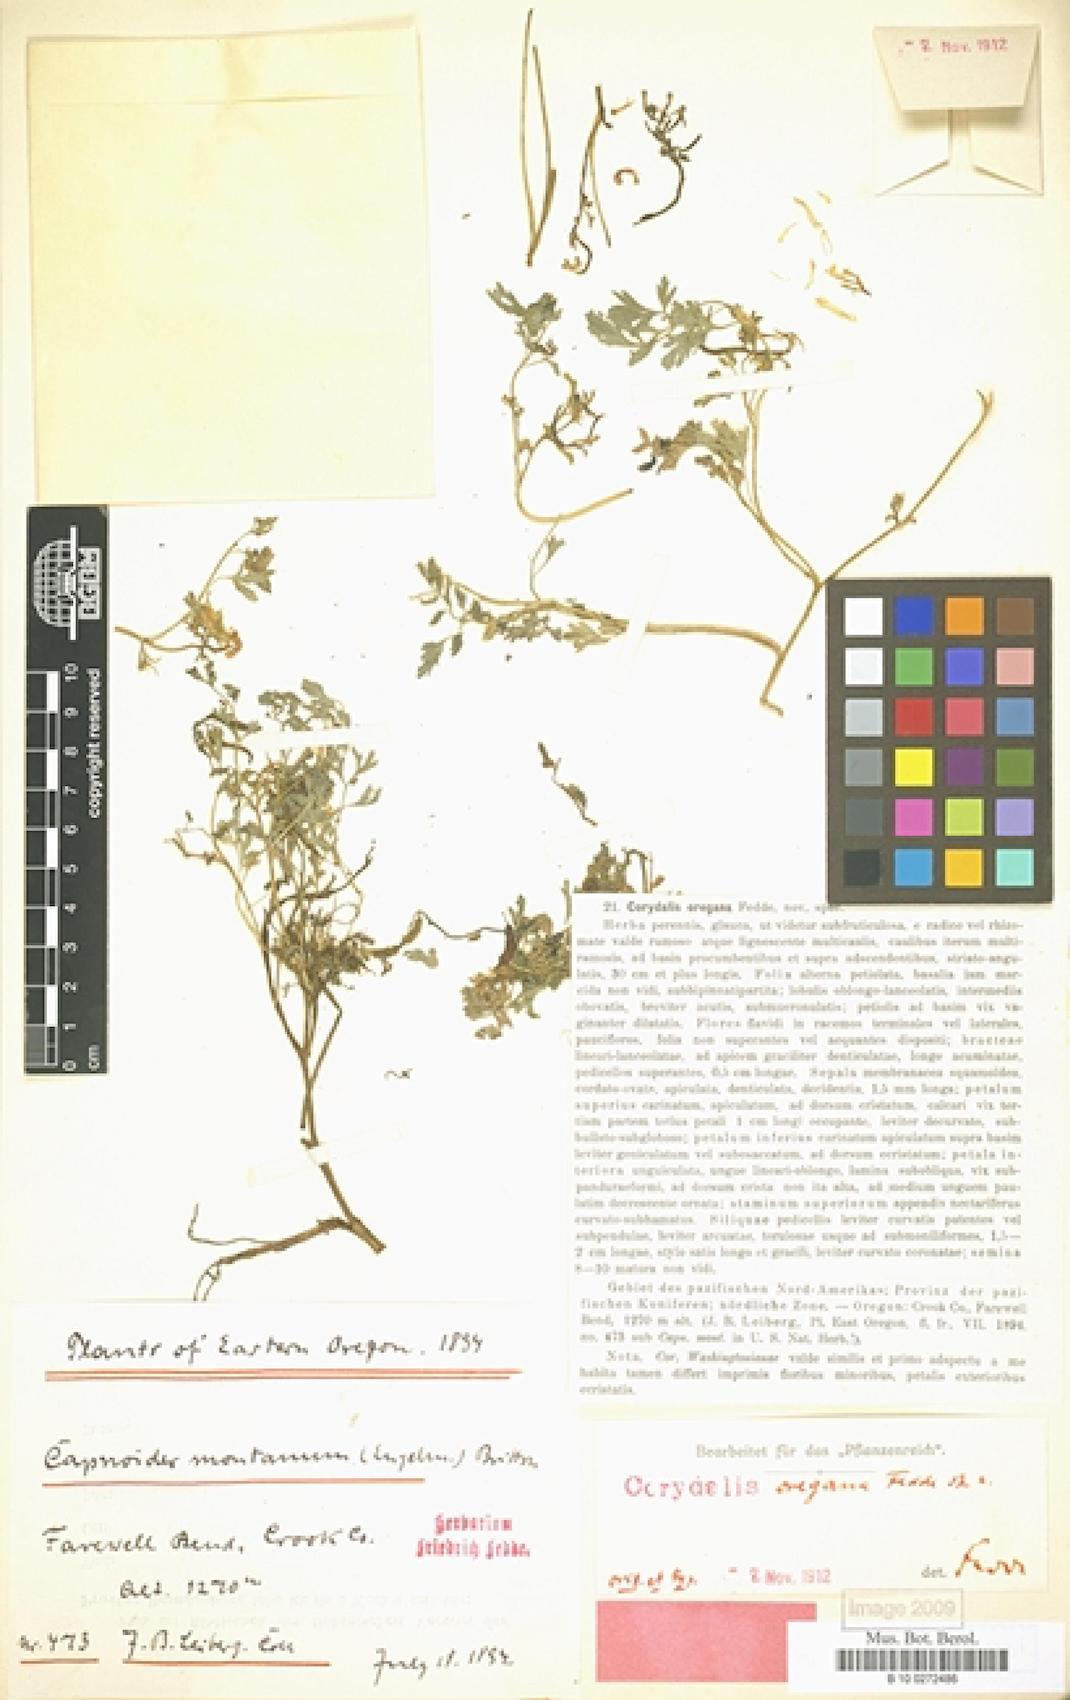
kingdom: Plantae
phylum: Tracheophyta
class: Magnoliopsida
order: Ranunculales
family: Papaveraceae
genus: Corydalis
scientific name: Corydalis aurea
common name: Golden corydalis
